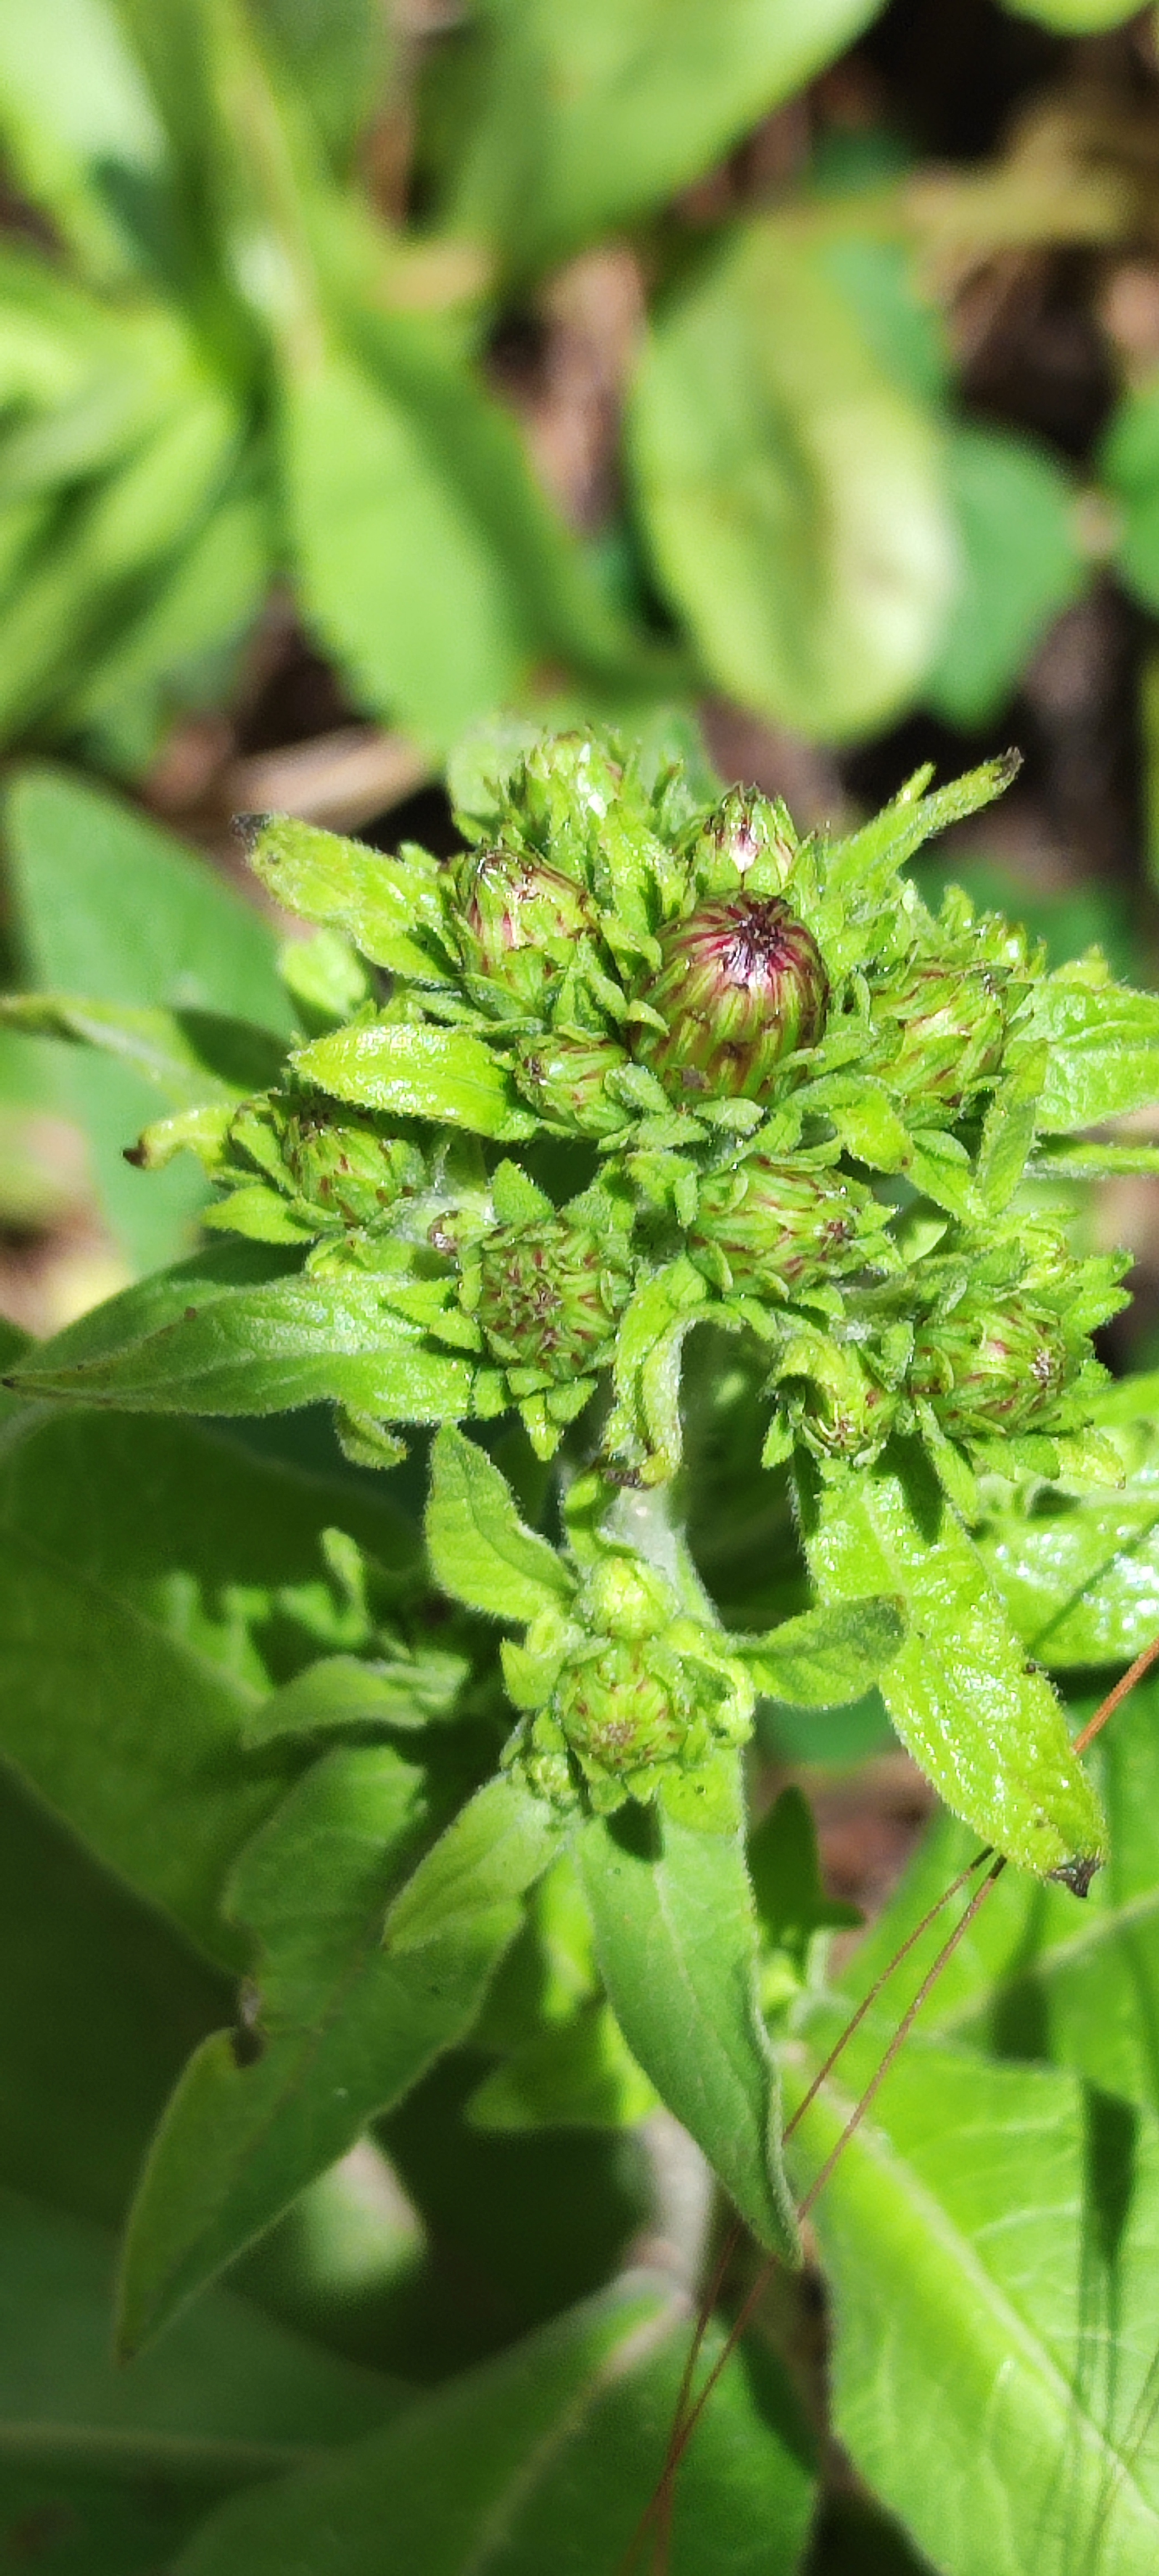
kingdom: Plantae
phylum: Tracheophyta
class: Magnoliopsida
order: Asterales
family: Asteraceae
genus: Pentanema
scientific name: Pentanema squarrosum
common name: Trekløft-alant
